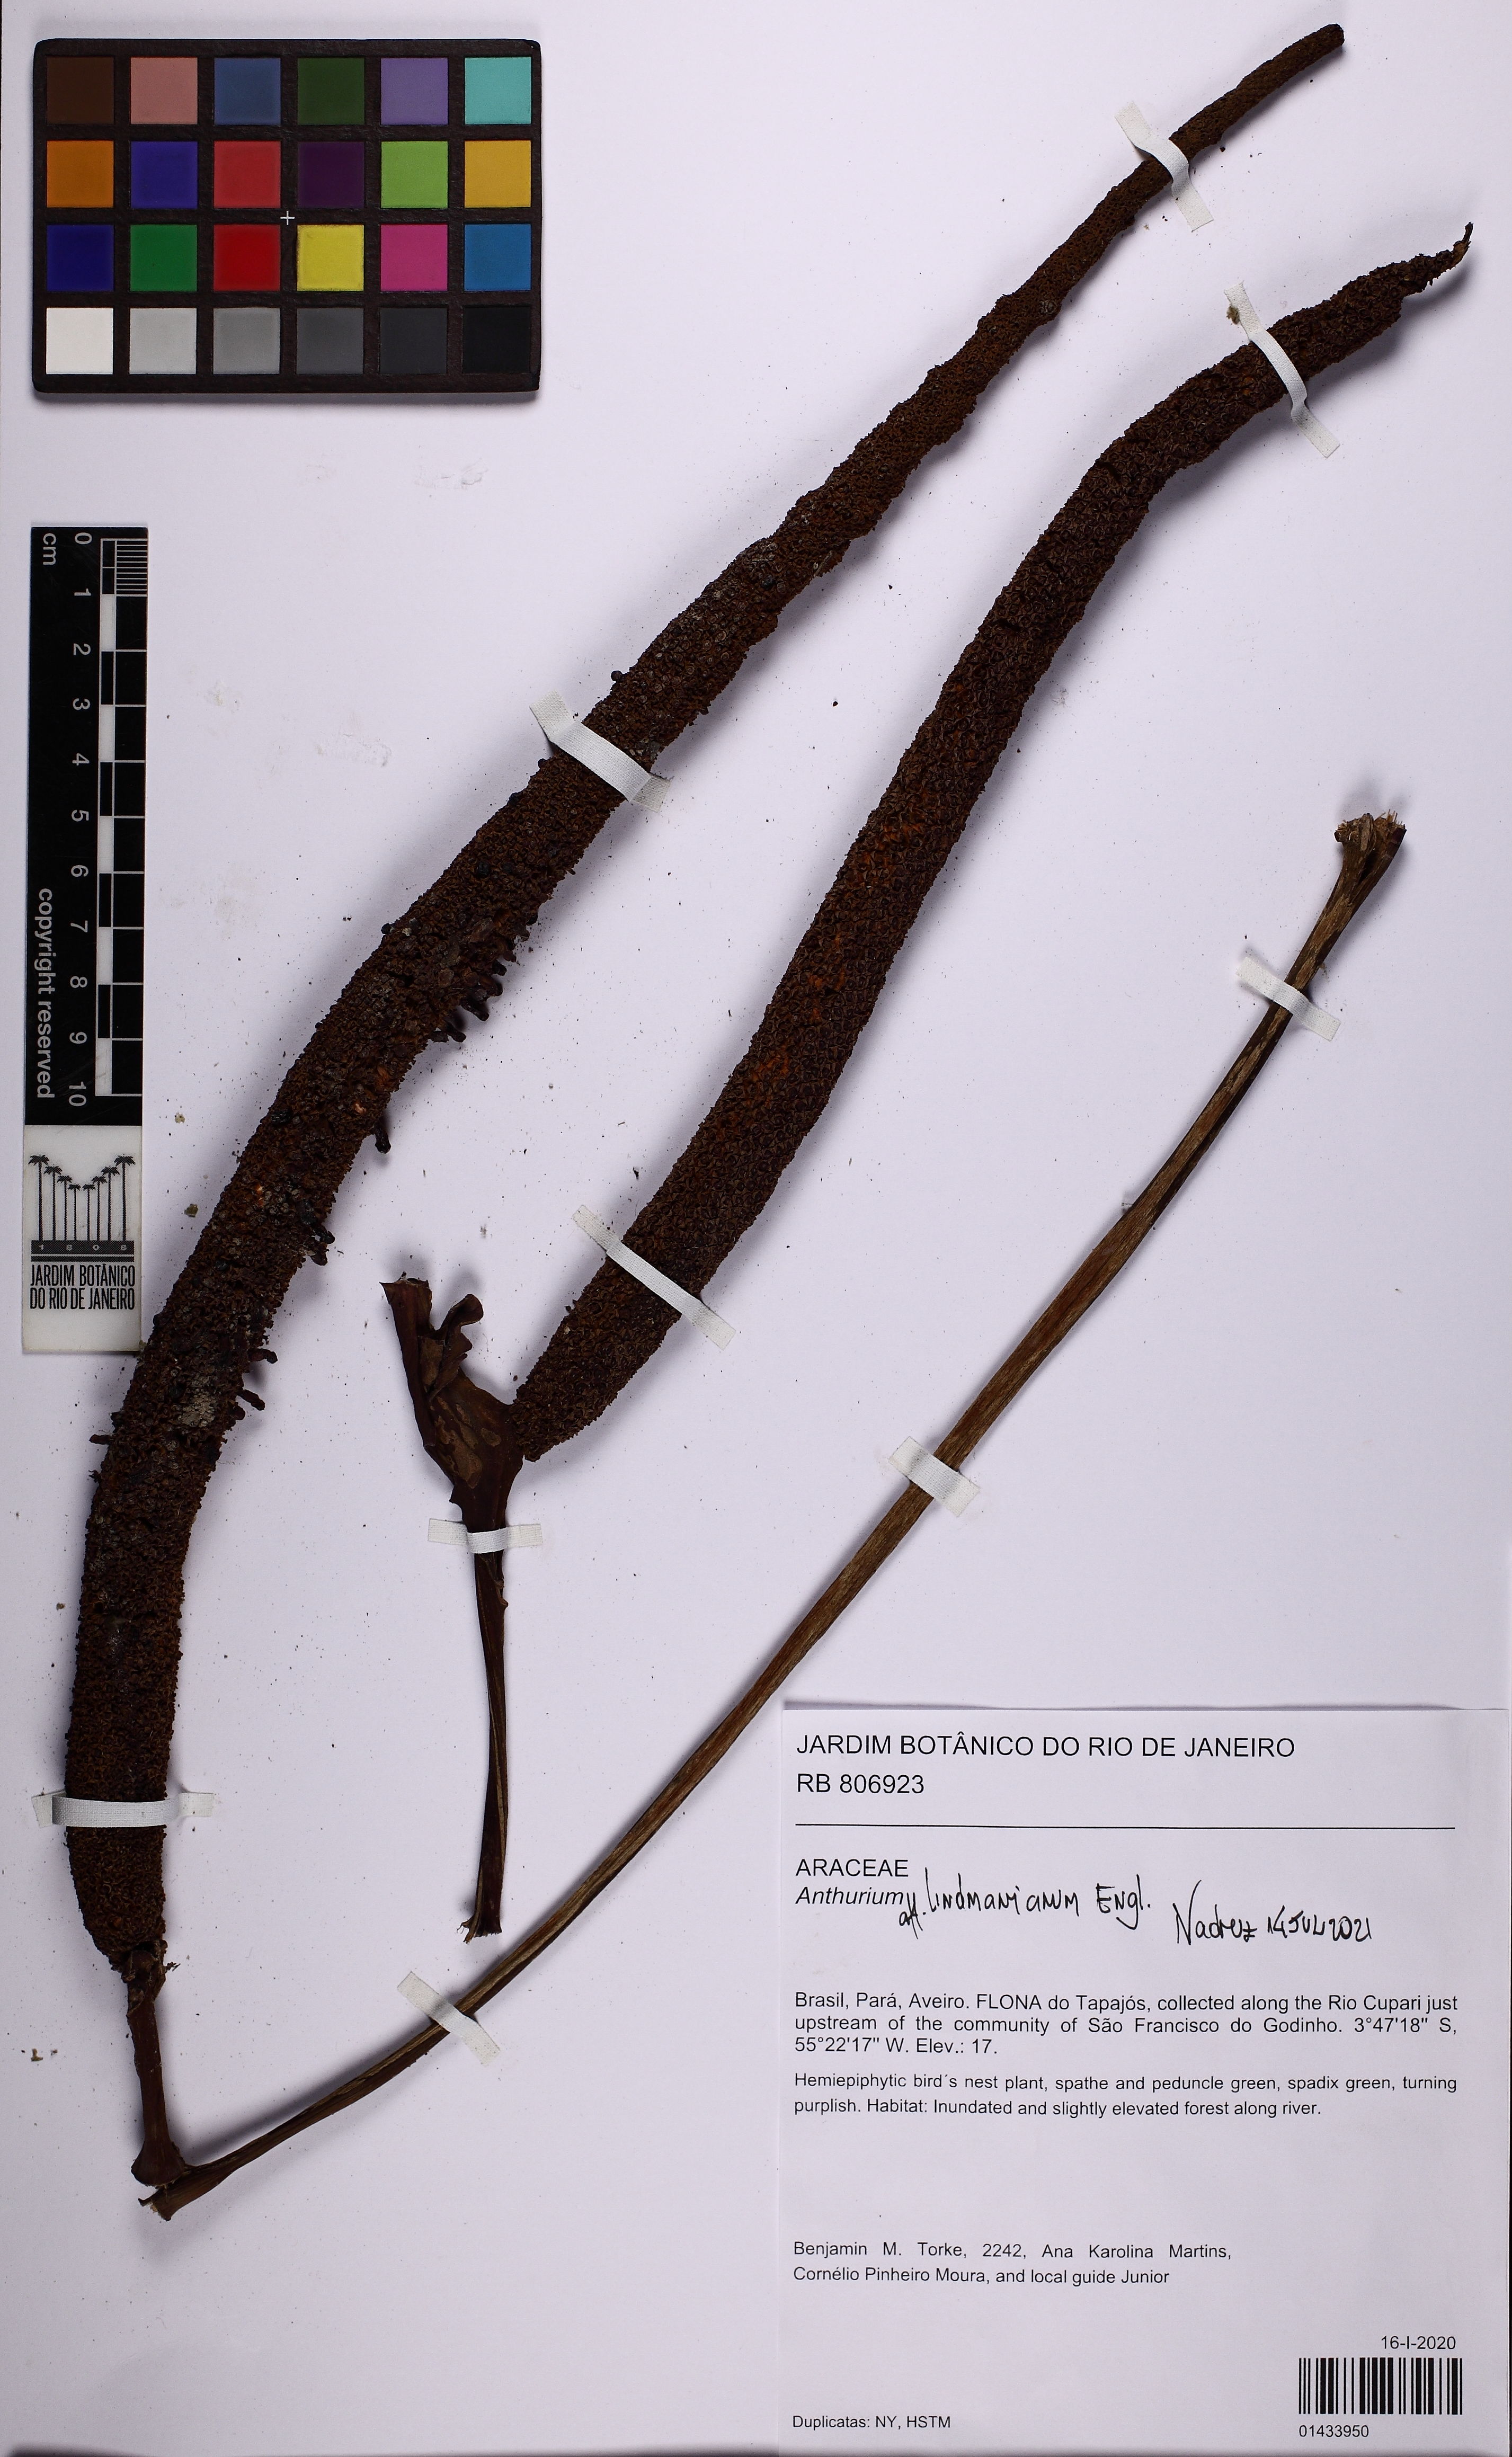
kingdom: Plantae
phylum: Tracheophyta
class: Liliopsida
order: Alismatales
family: Araceae
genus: Anthurium
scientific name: Anthurium lindmanianum
